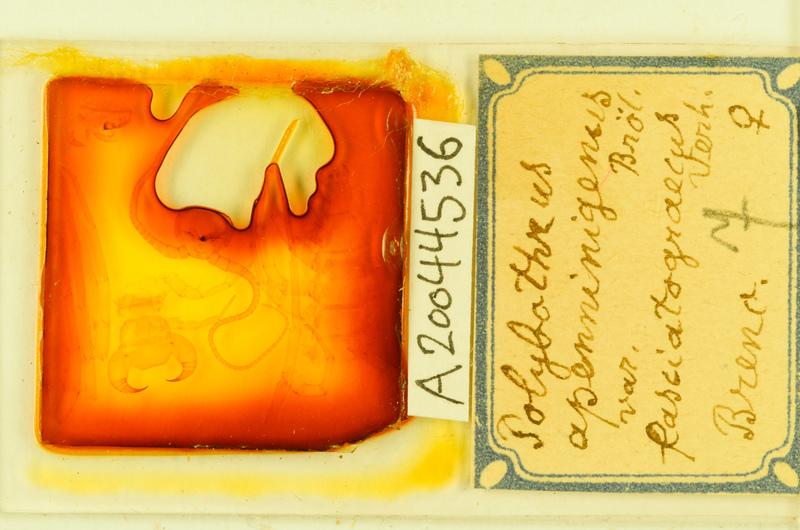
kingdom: Animalia
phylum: Arthropoda
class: Chilopoda
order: Lithobiomorpha
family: Lithobiidae
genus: Polybothrus
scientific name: Polybothrus
